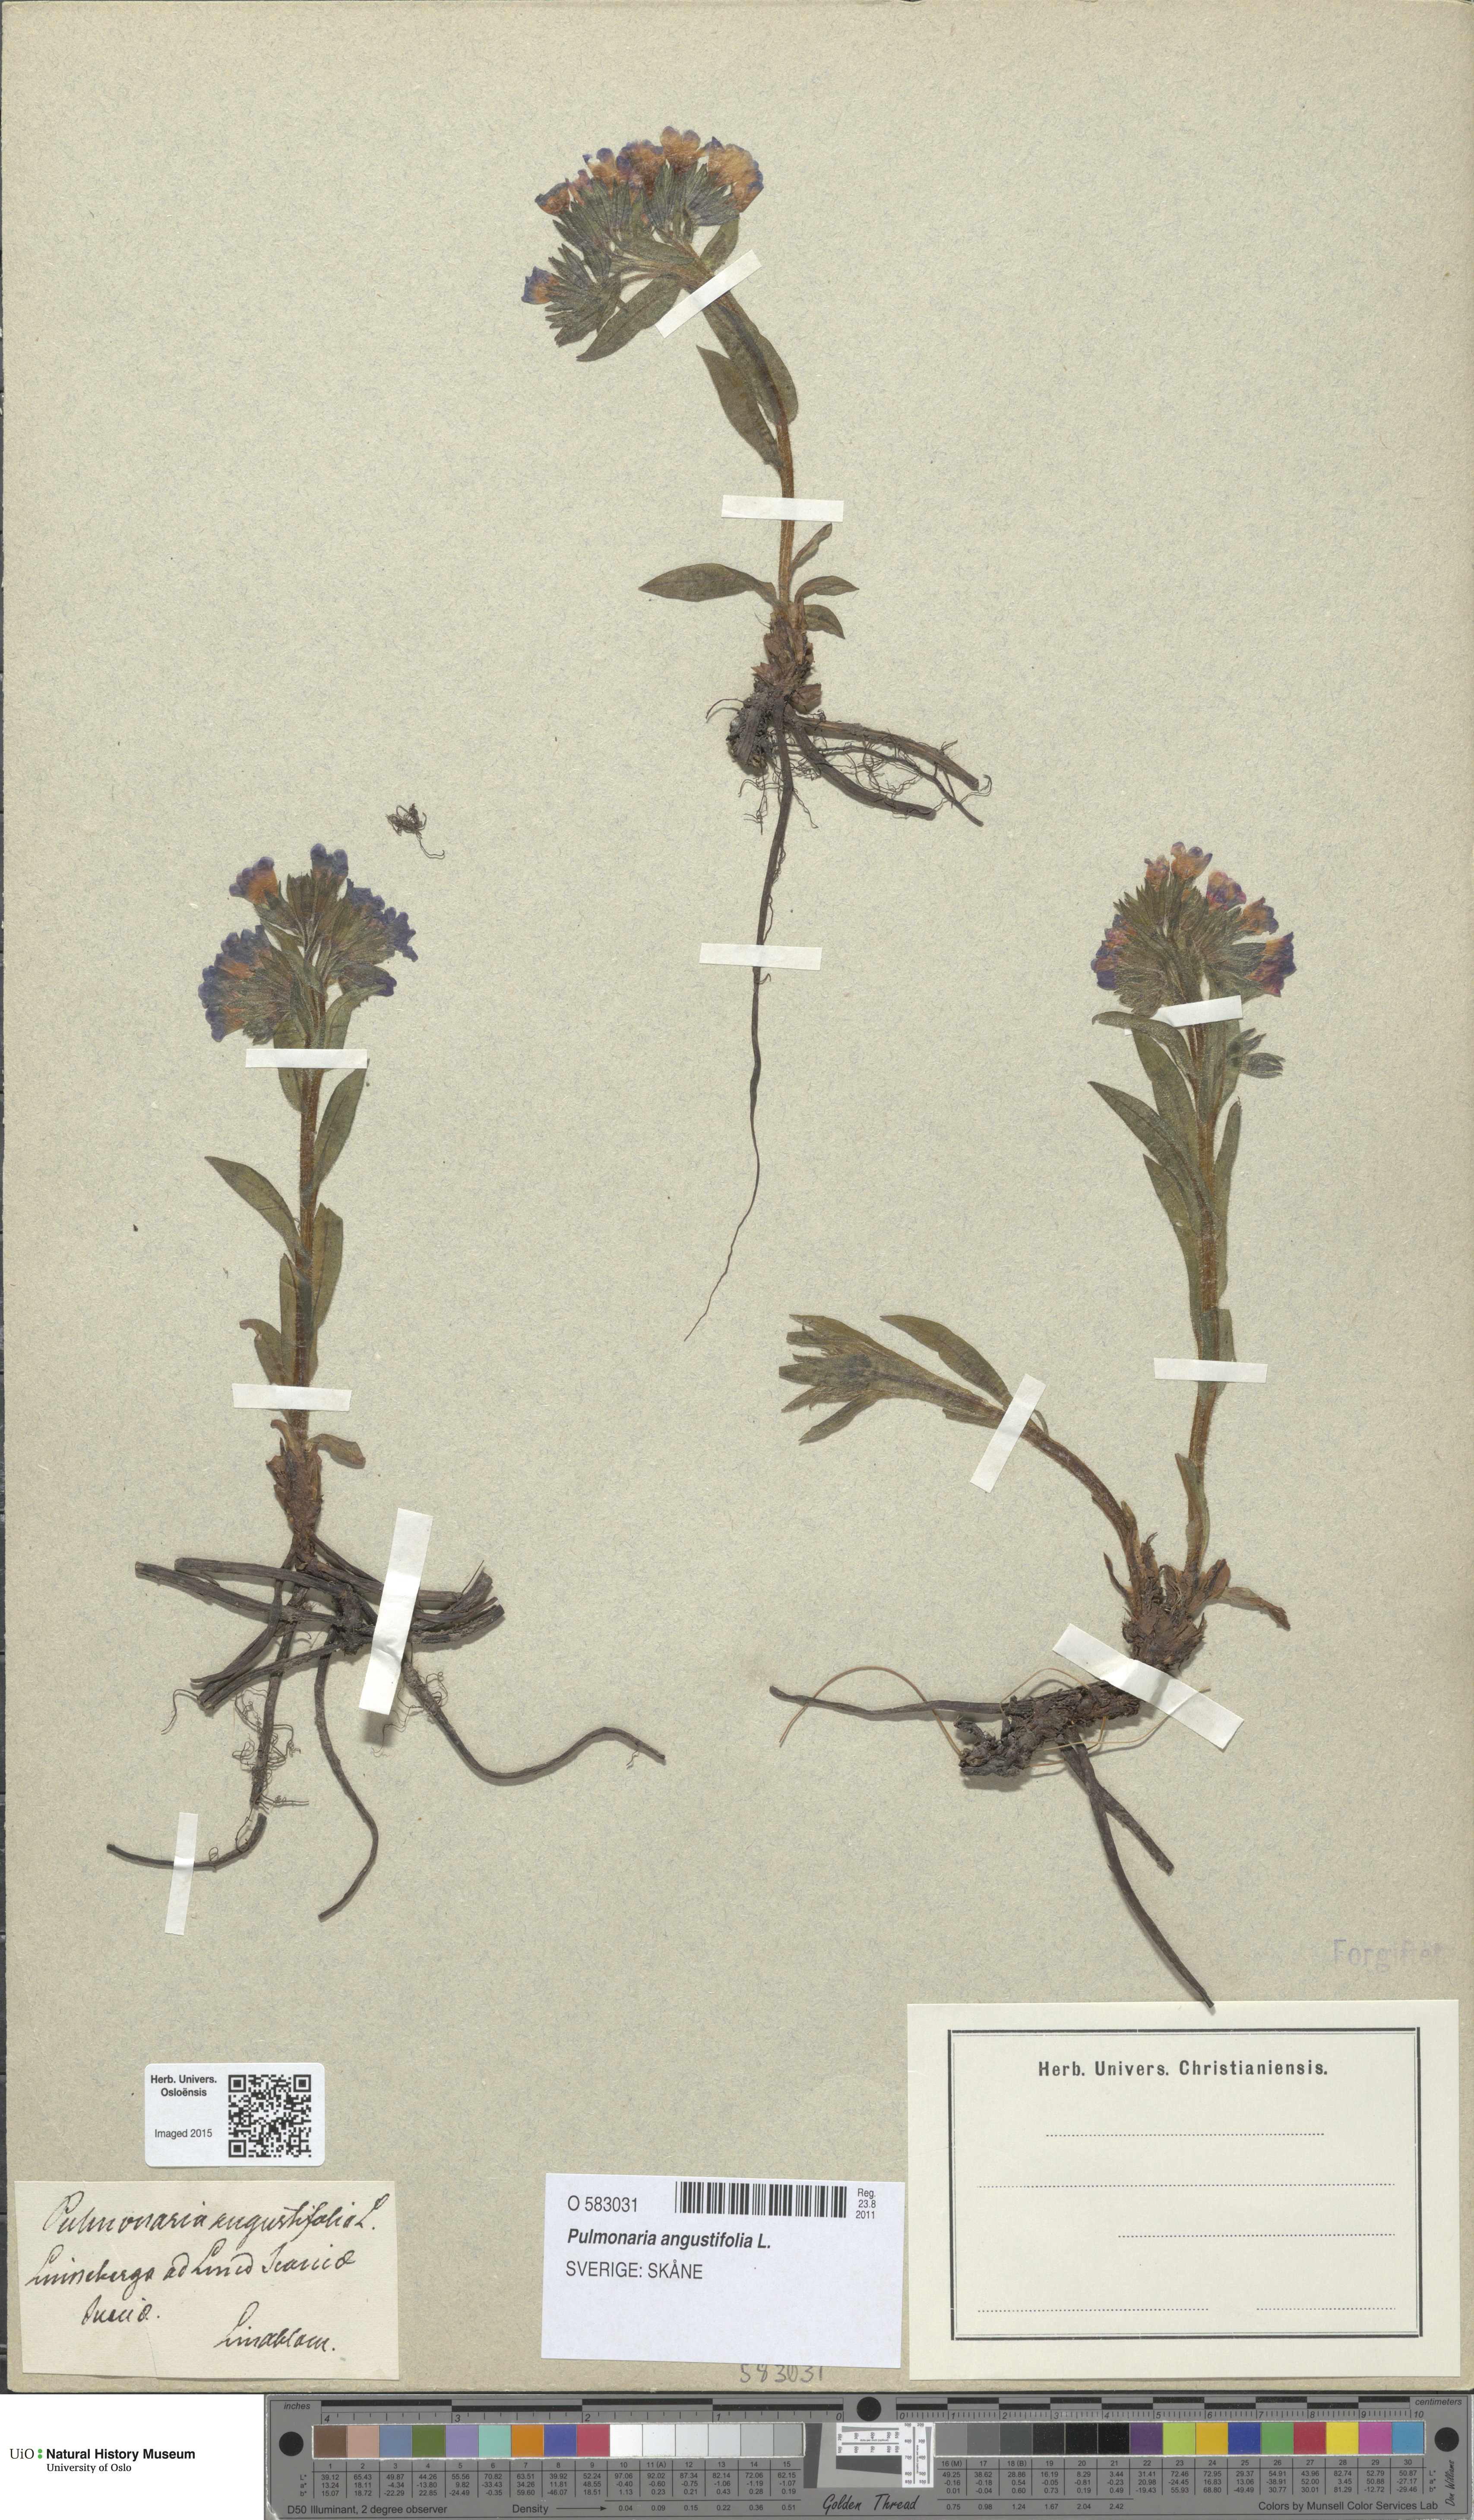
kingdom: Plantae
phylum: Tracheophyta
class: Magnoliopsida
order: Boraginales
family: Boraginaceae
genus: Pulmonaria
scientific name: Pulmonaria angustifolia
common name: Blue cowslip
